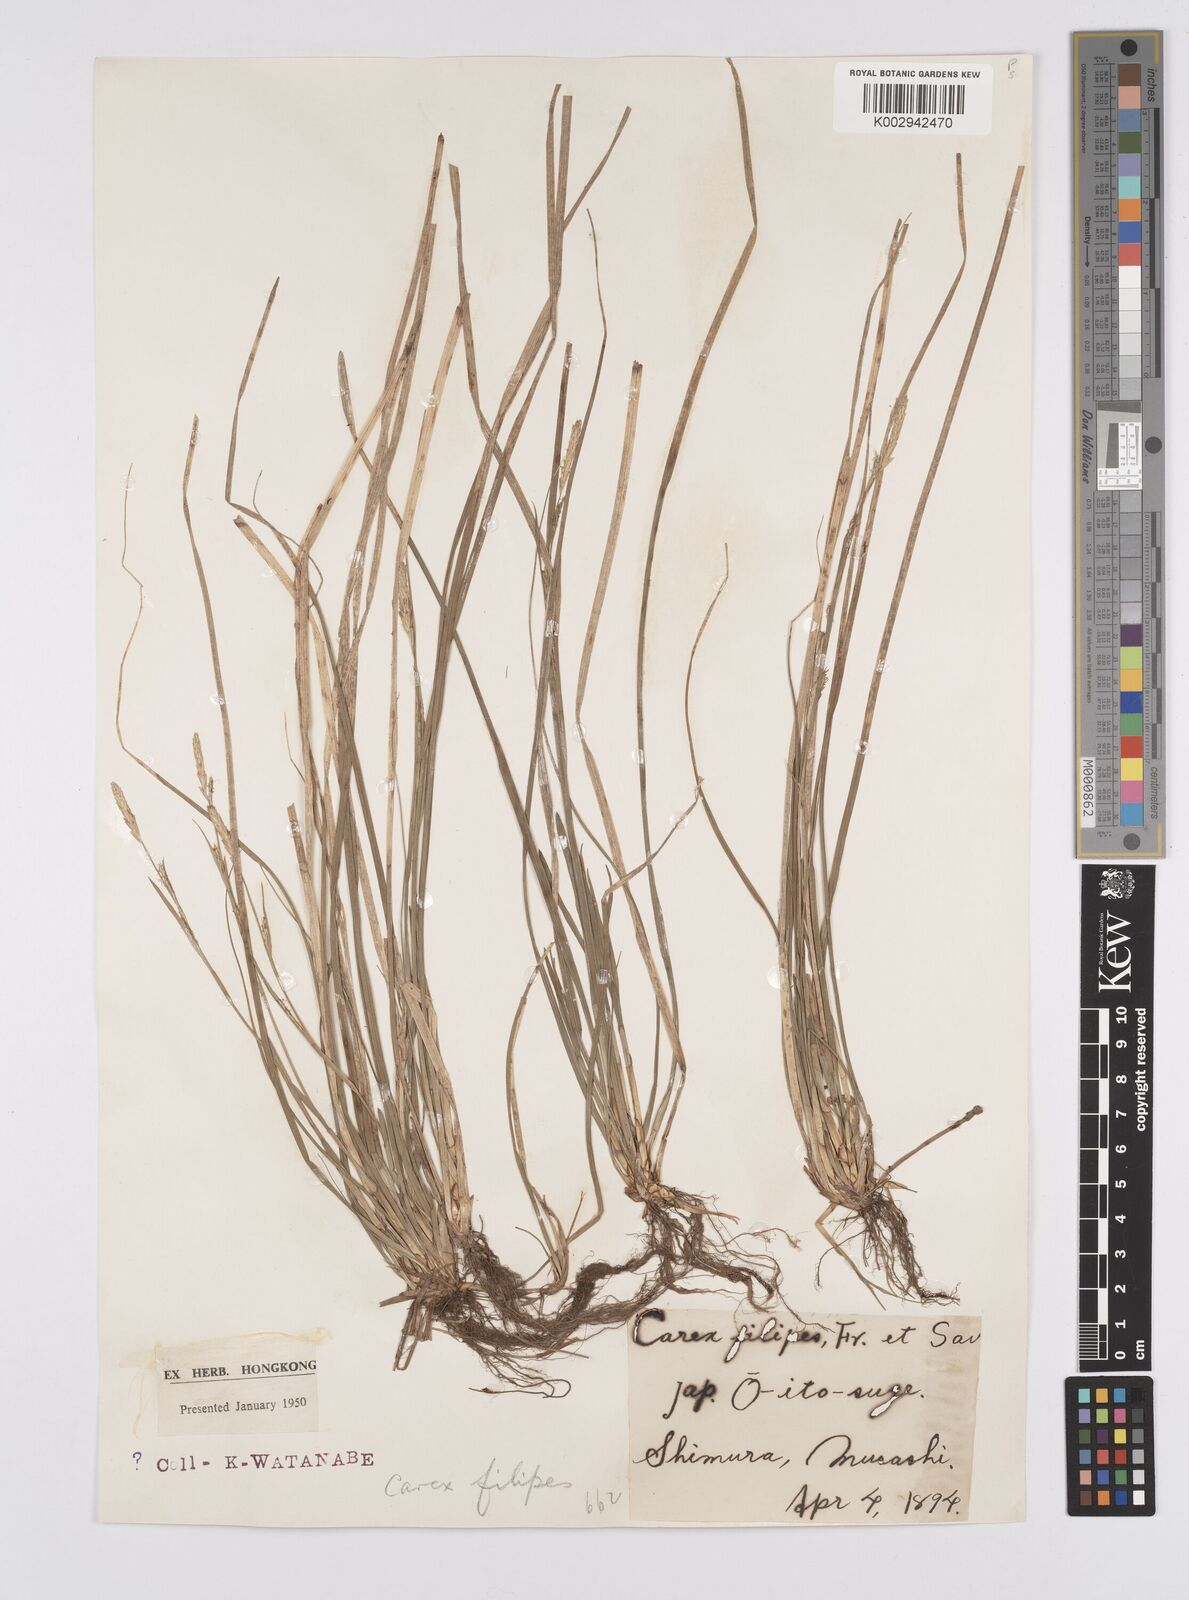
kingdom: Plantae
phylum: Tracheophyta
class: Liliopsida
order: Poales
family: Cyperaceae
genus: Carex
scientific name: Carex filipes
